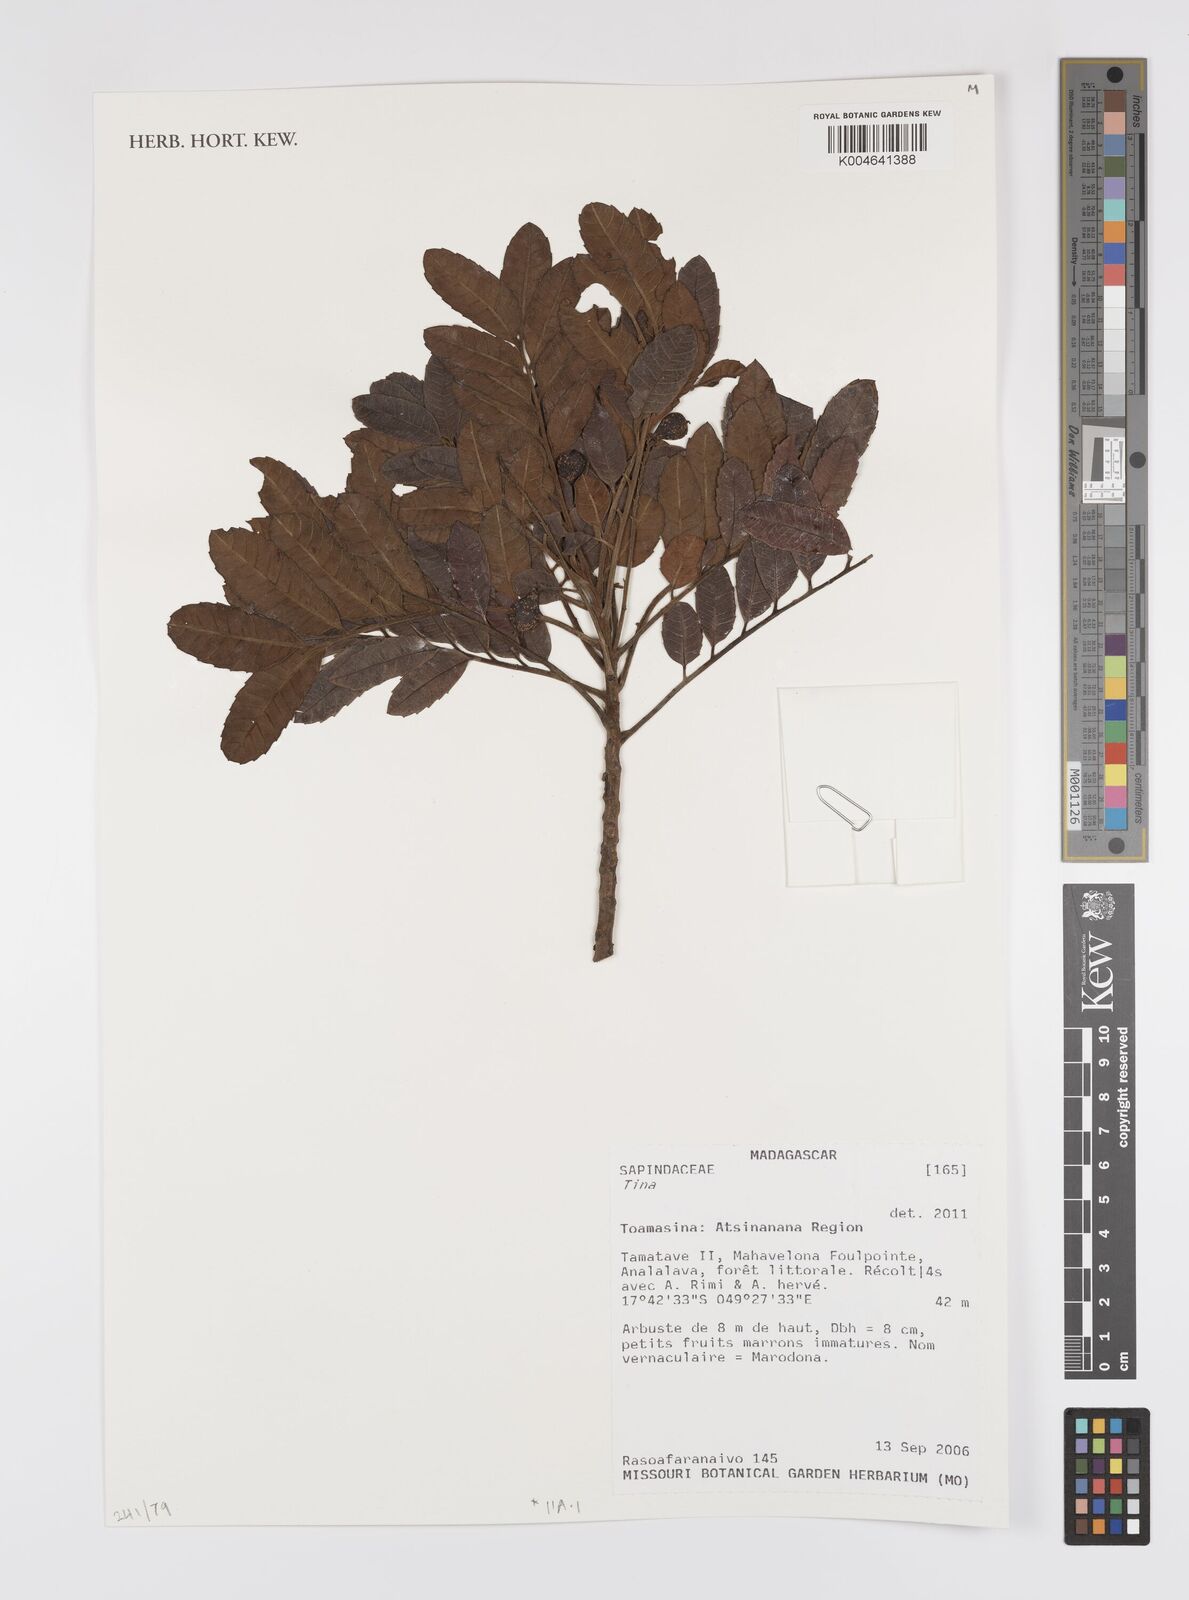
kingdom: Plantae
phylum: Tracheophyta
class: Magnoliopsida
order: Sapindales
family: Sapindaceae
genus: Tina
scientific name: Tina
